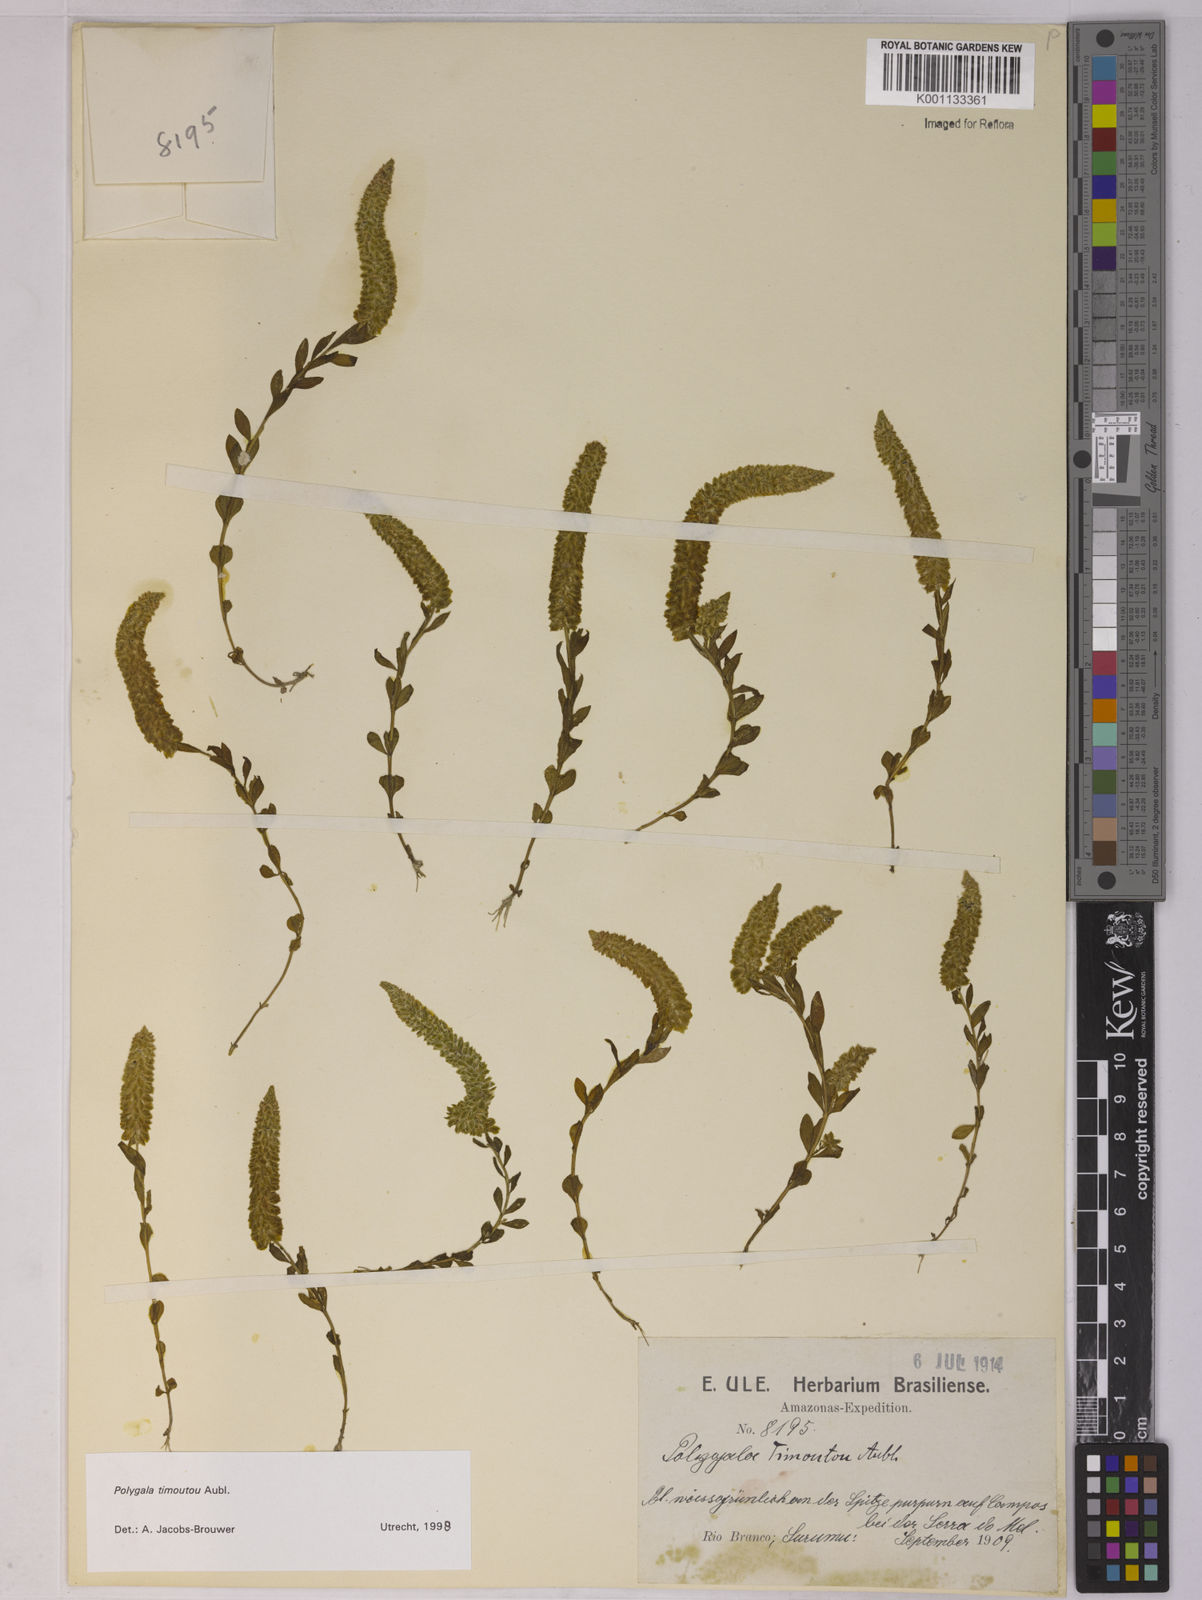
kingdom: Plantae
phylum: Tracheophyta
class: Magnoliopsida
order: Fabales
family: Polygalaceae
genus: Polygala
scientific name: Polygala timoutoides
